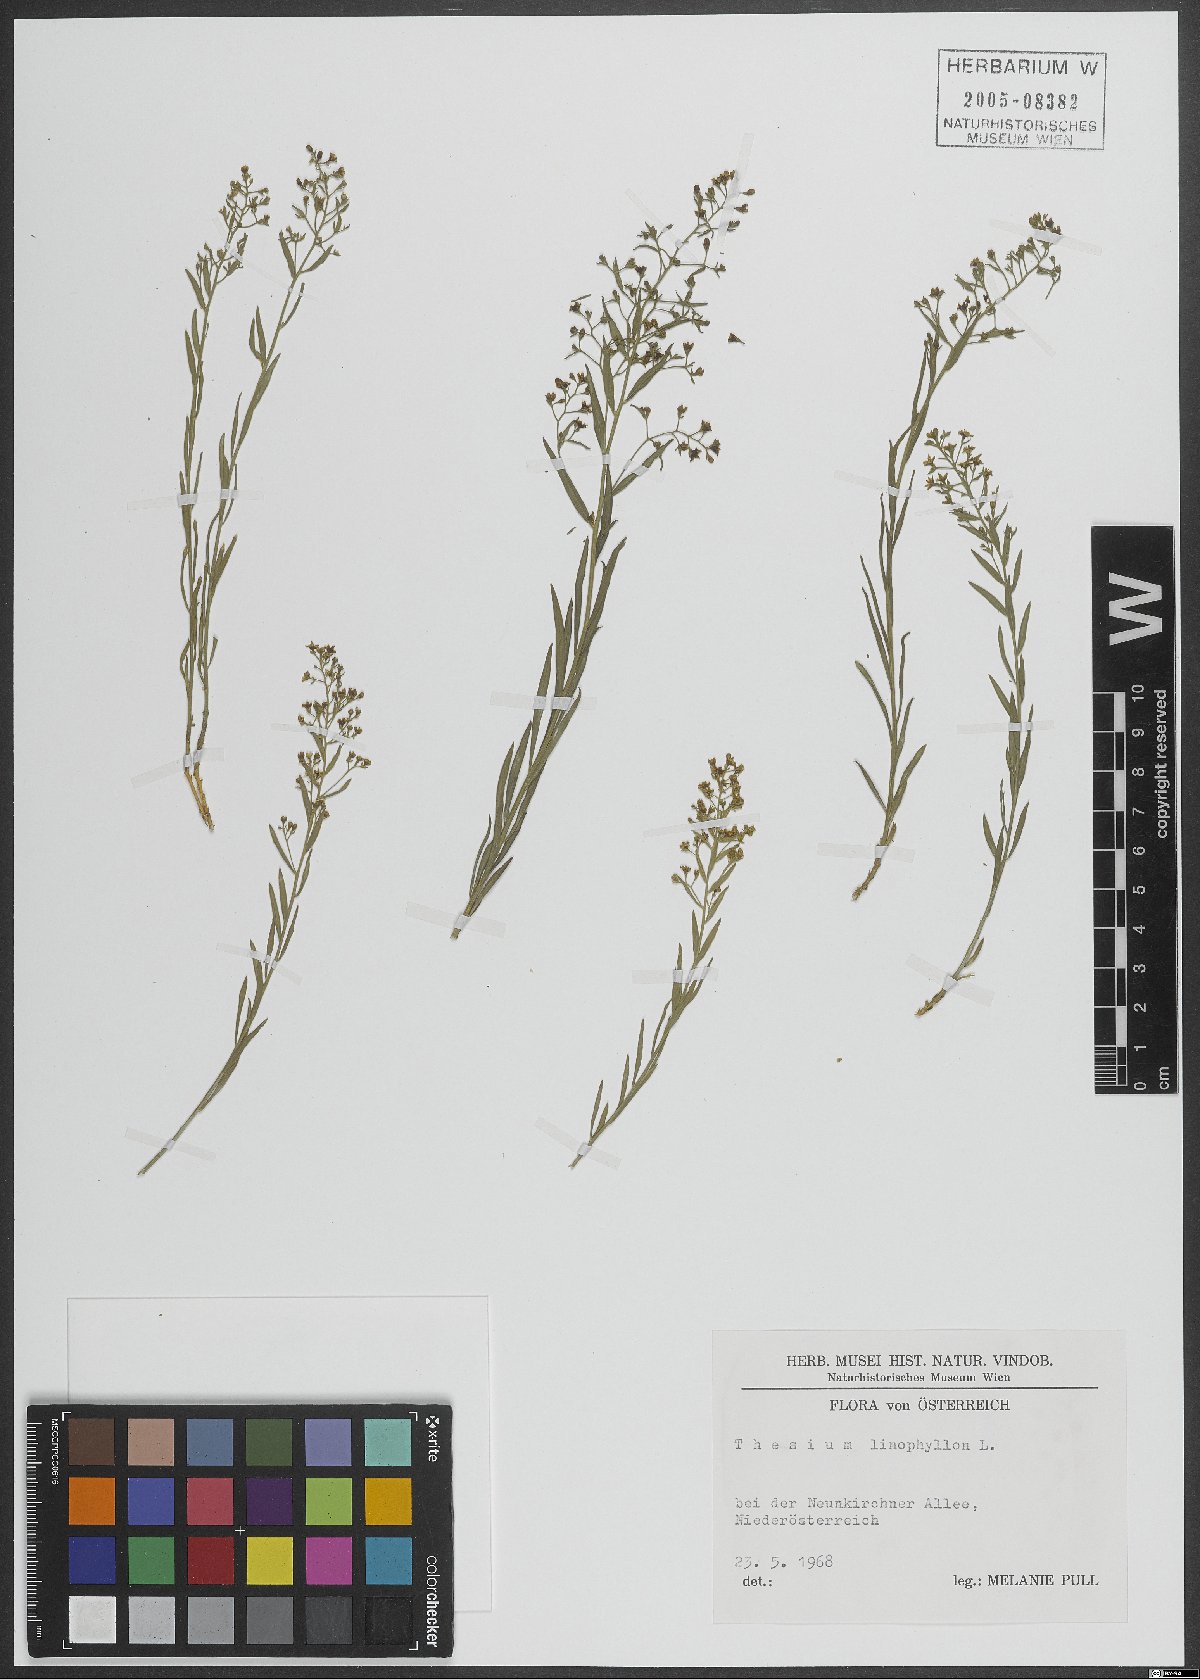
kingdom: Plantae
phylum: Tracheophyta
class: Magnoliopsida
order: Santalales
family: Thesiaceae
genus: Thesium
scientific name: Thesium linophyllon
